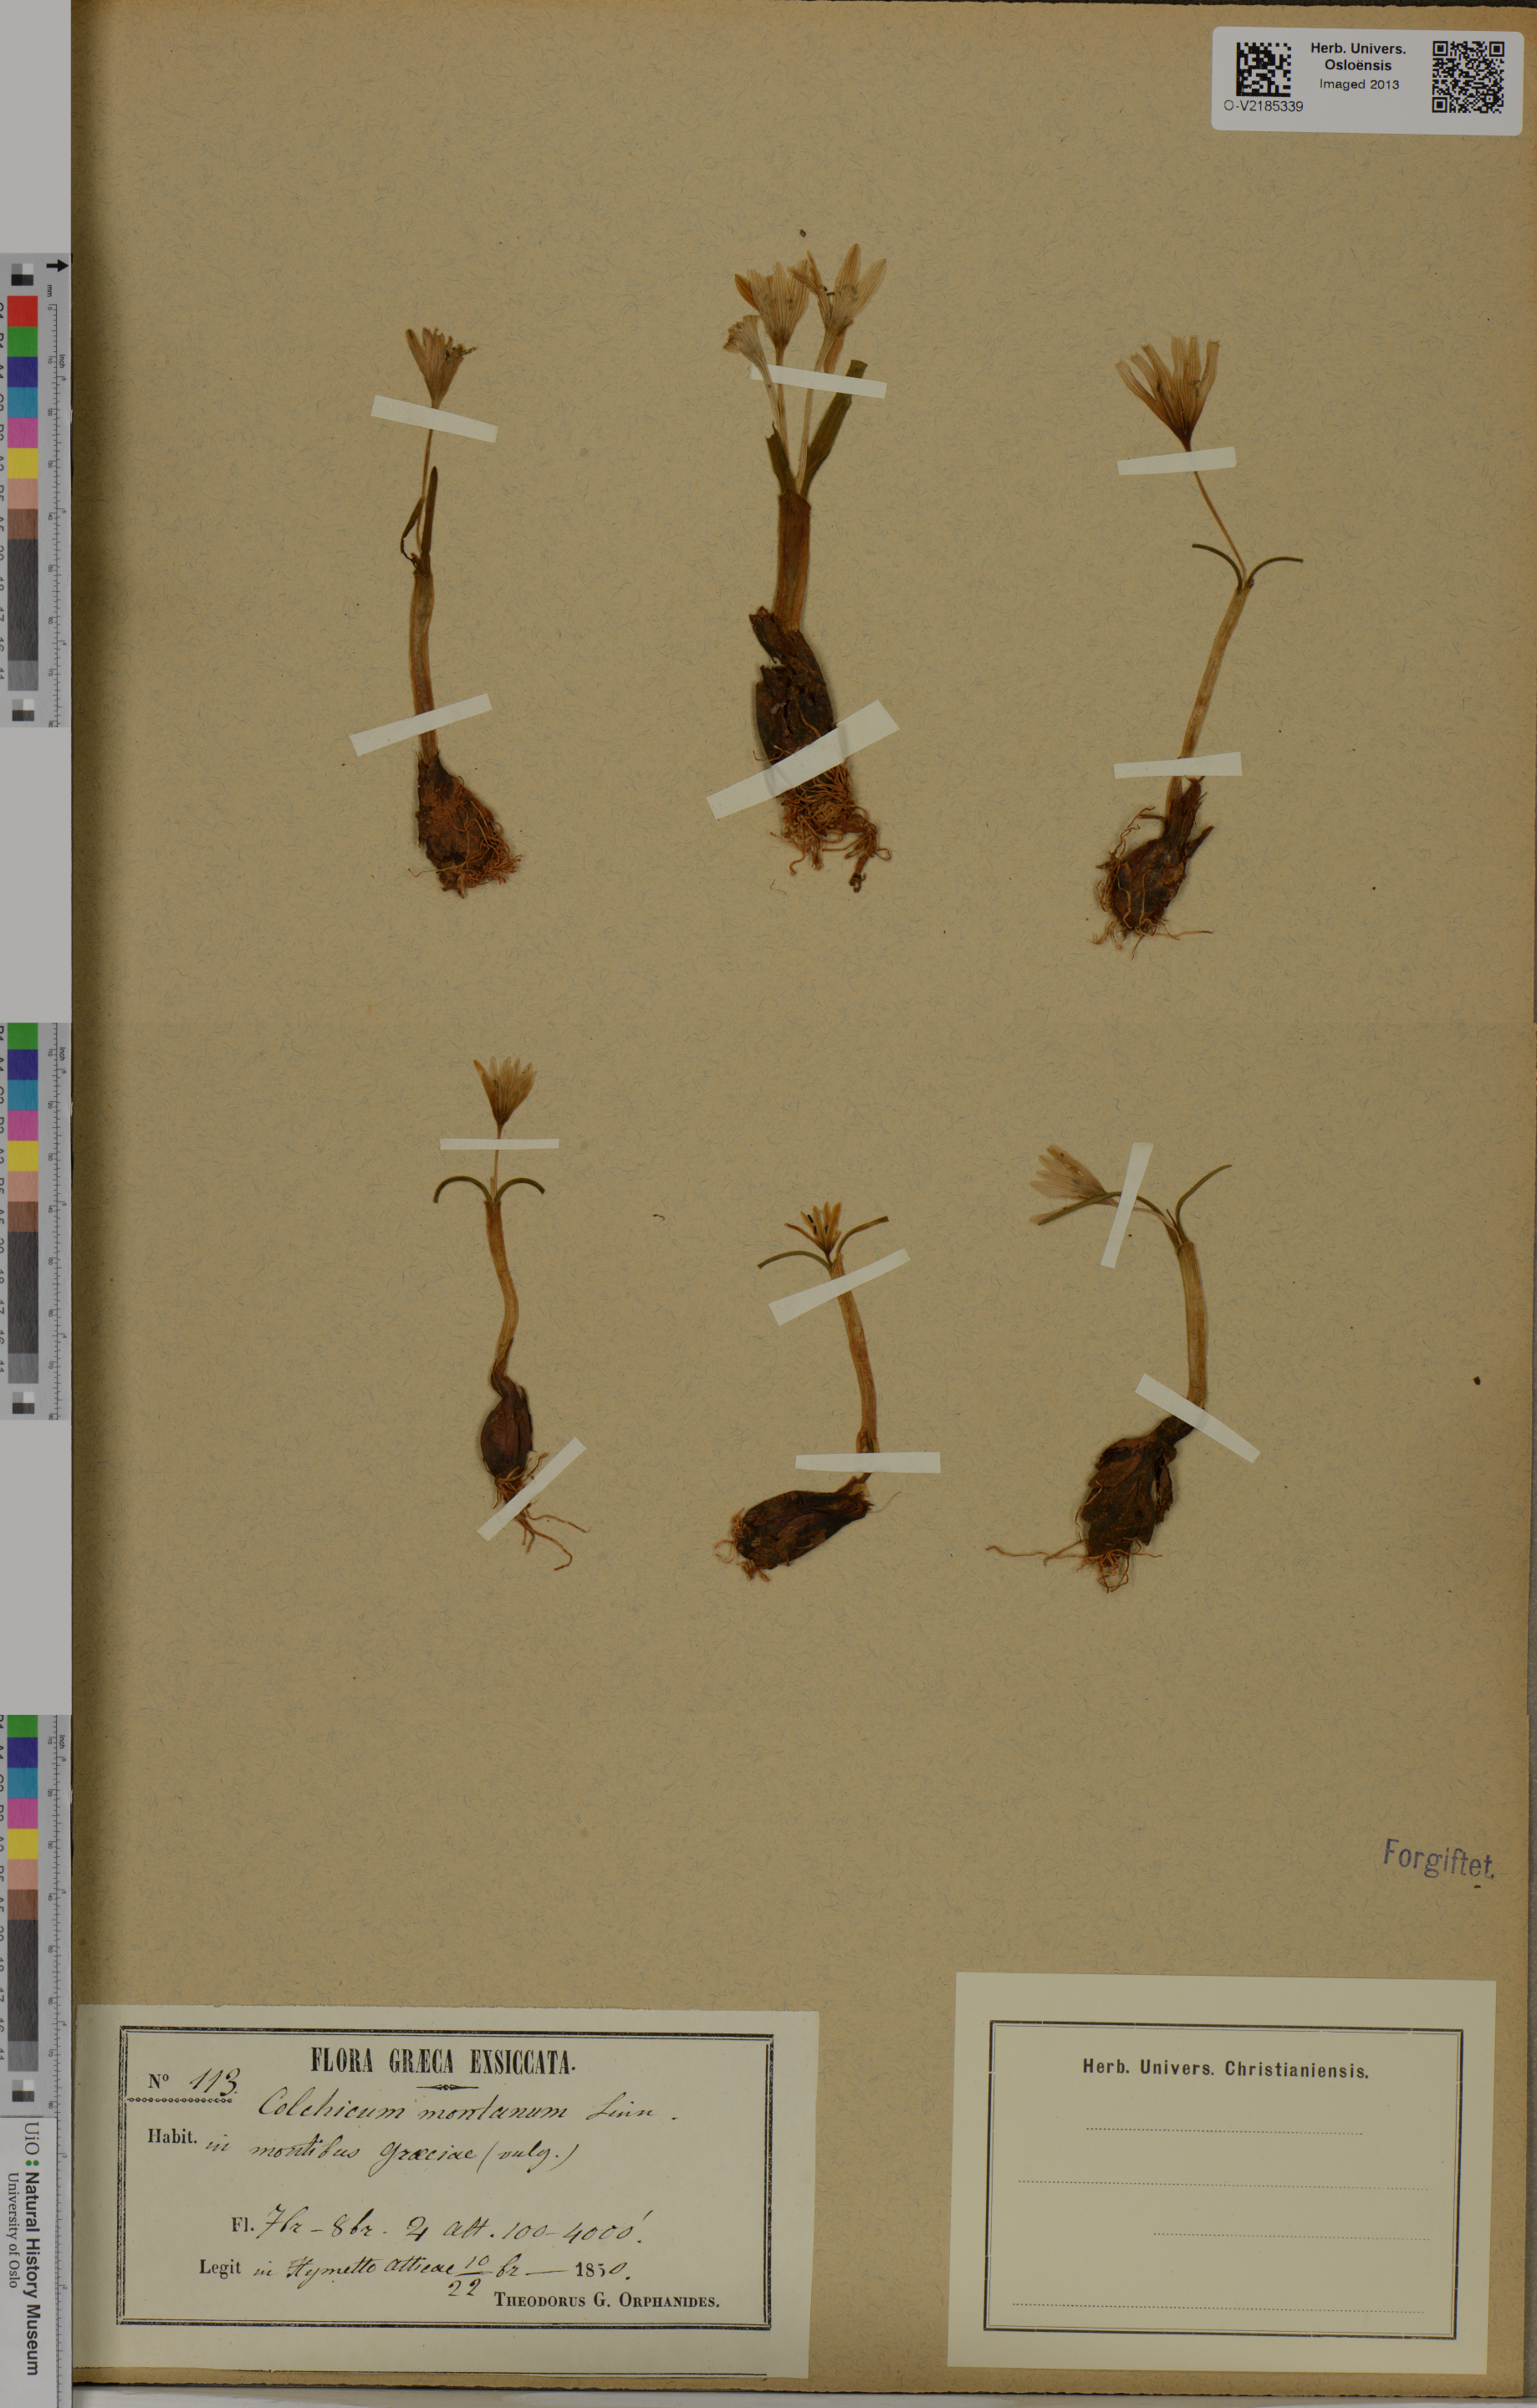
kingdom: Plantae
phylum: Tracheophyta
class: Liliopsida
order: Liliales
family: Colchicaceae
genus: Colchicum
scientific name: Colchicum montanum
